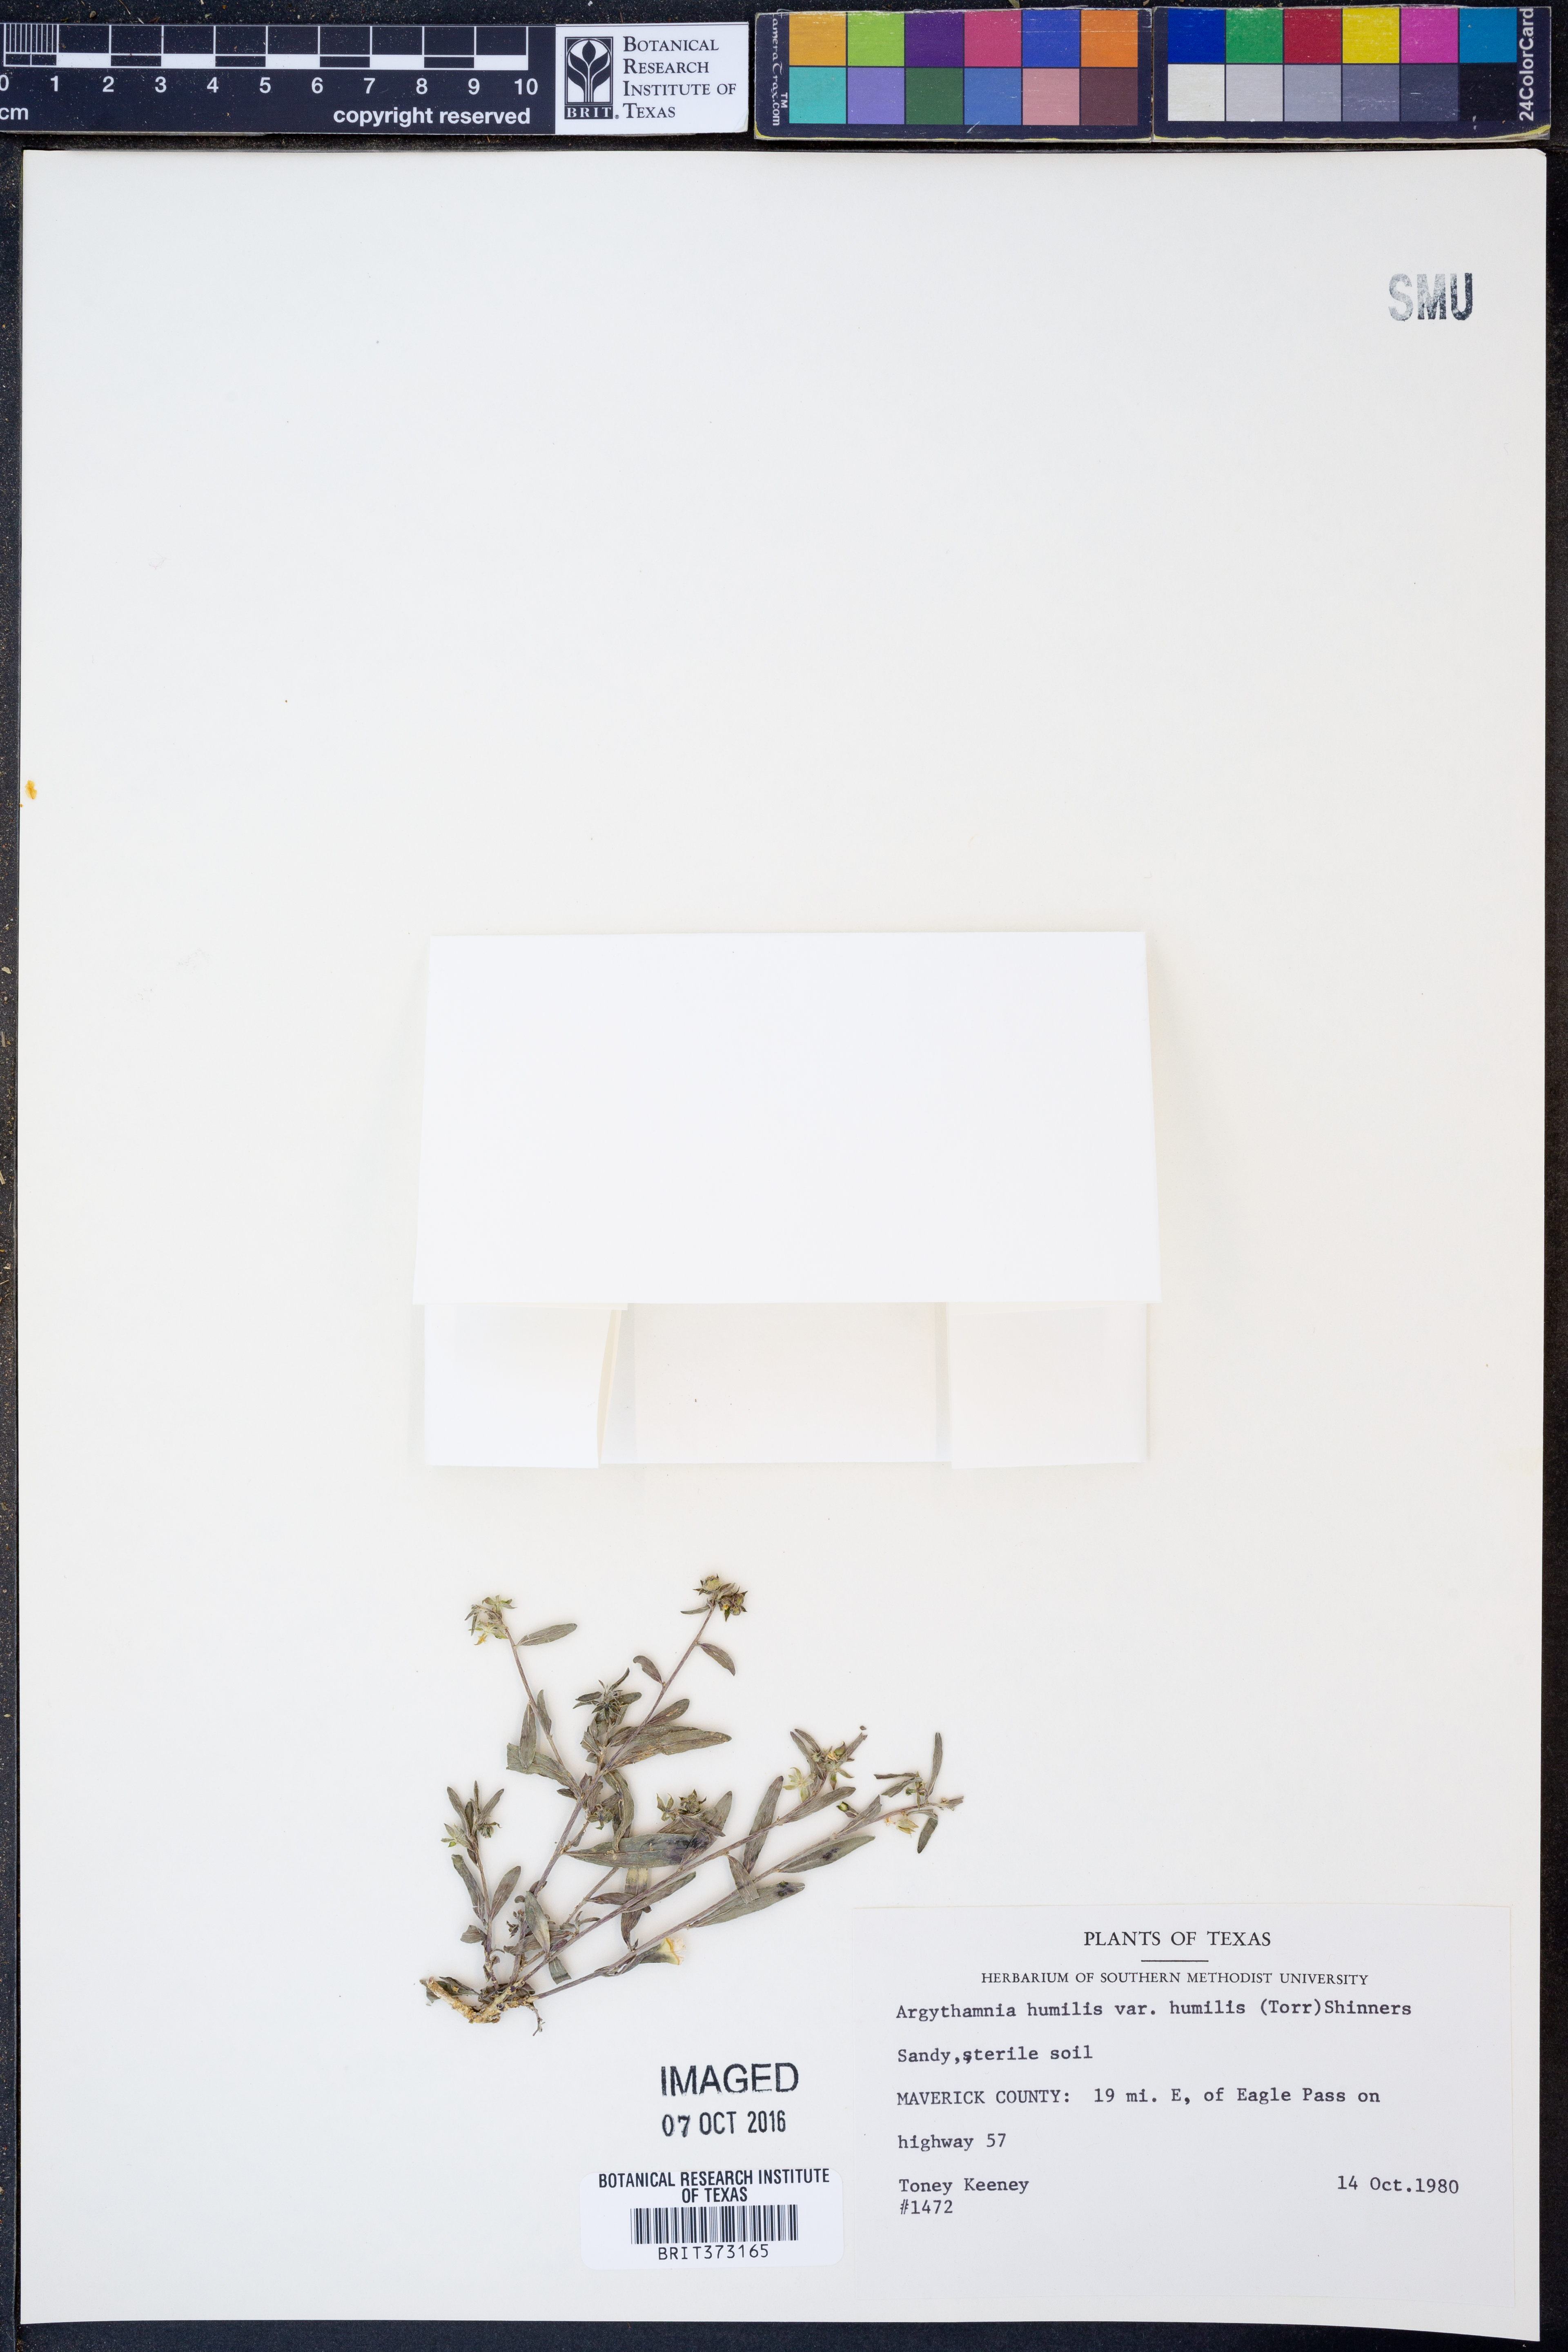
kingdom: Plantae
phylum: Tracheophyta
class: Magnoliopsida
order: Malpighiales
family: Euphorbiaceae
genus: Ditaxis
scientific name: Ditaxis humilis
